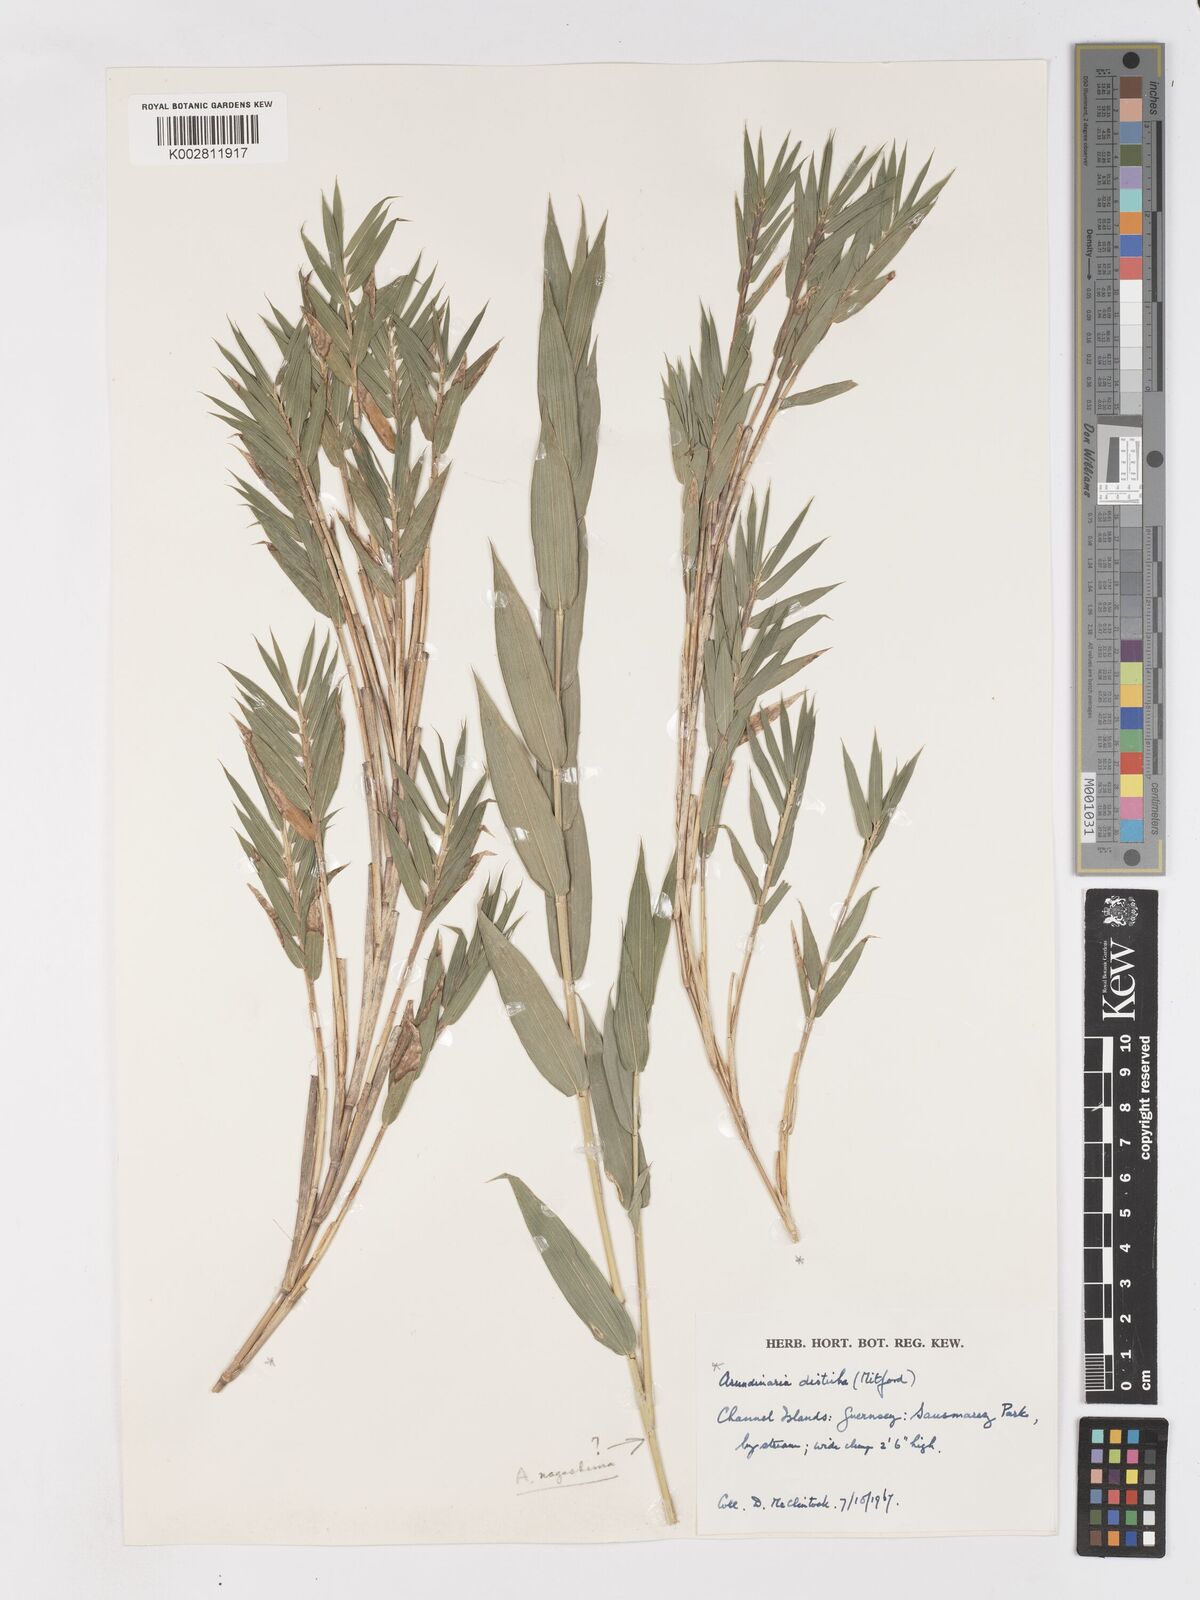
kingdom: Plantae
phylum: Tracheophyta
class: Liliopsida
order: Poales
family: Poaceae
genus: Pleioblastus
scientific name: Pleioblastus distichus
